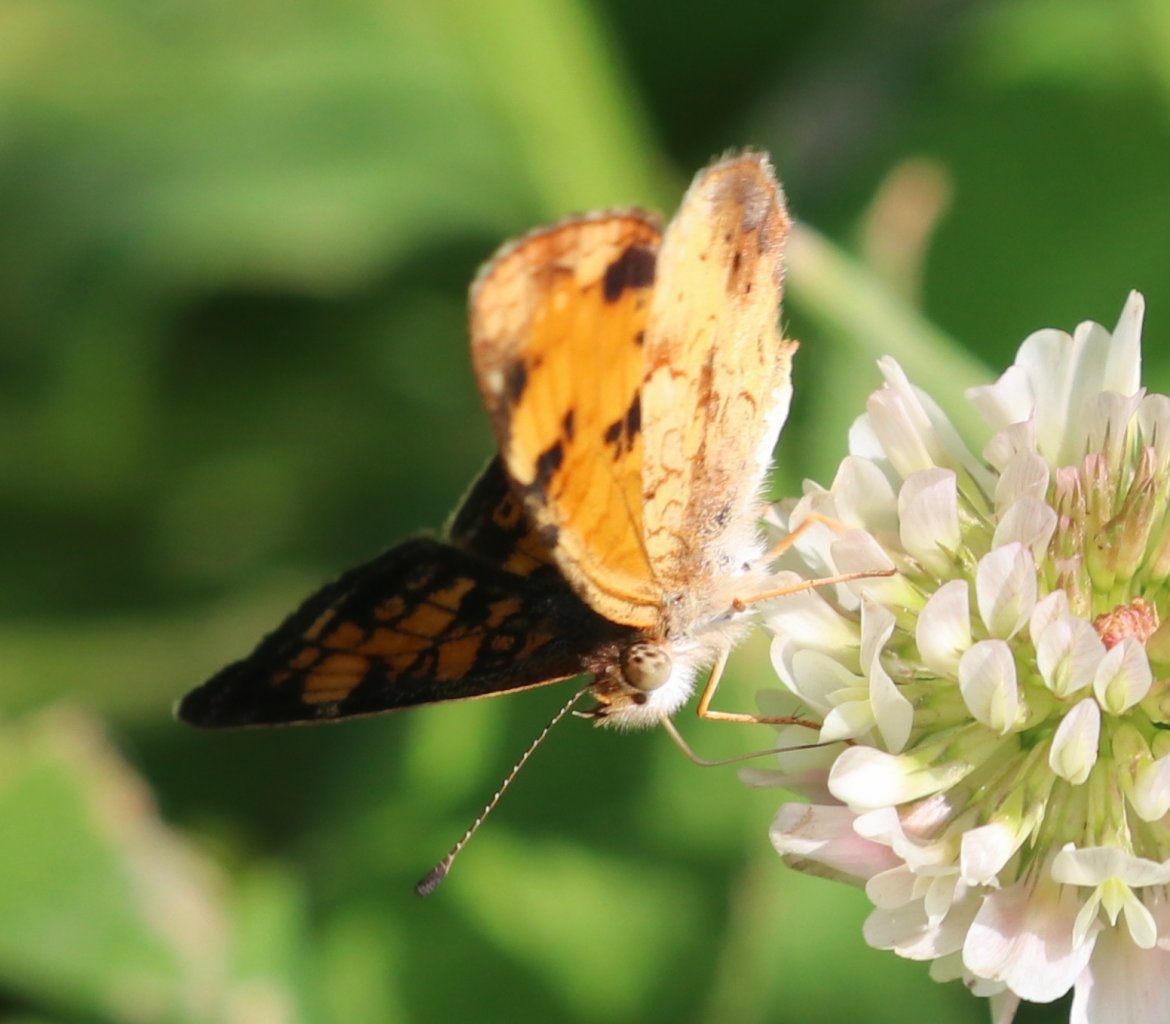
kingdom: Animalia
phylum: Arthropoda
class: Insecta
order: Lepidoptera
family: Nymphalidae
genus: Phyciodes
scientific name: Phyciodes tharos
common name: Pearl Crescent
